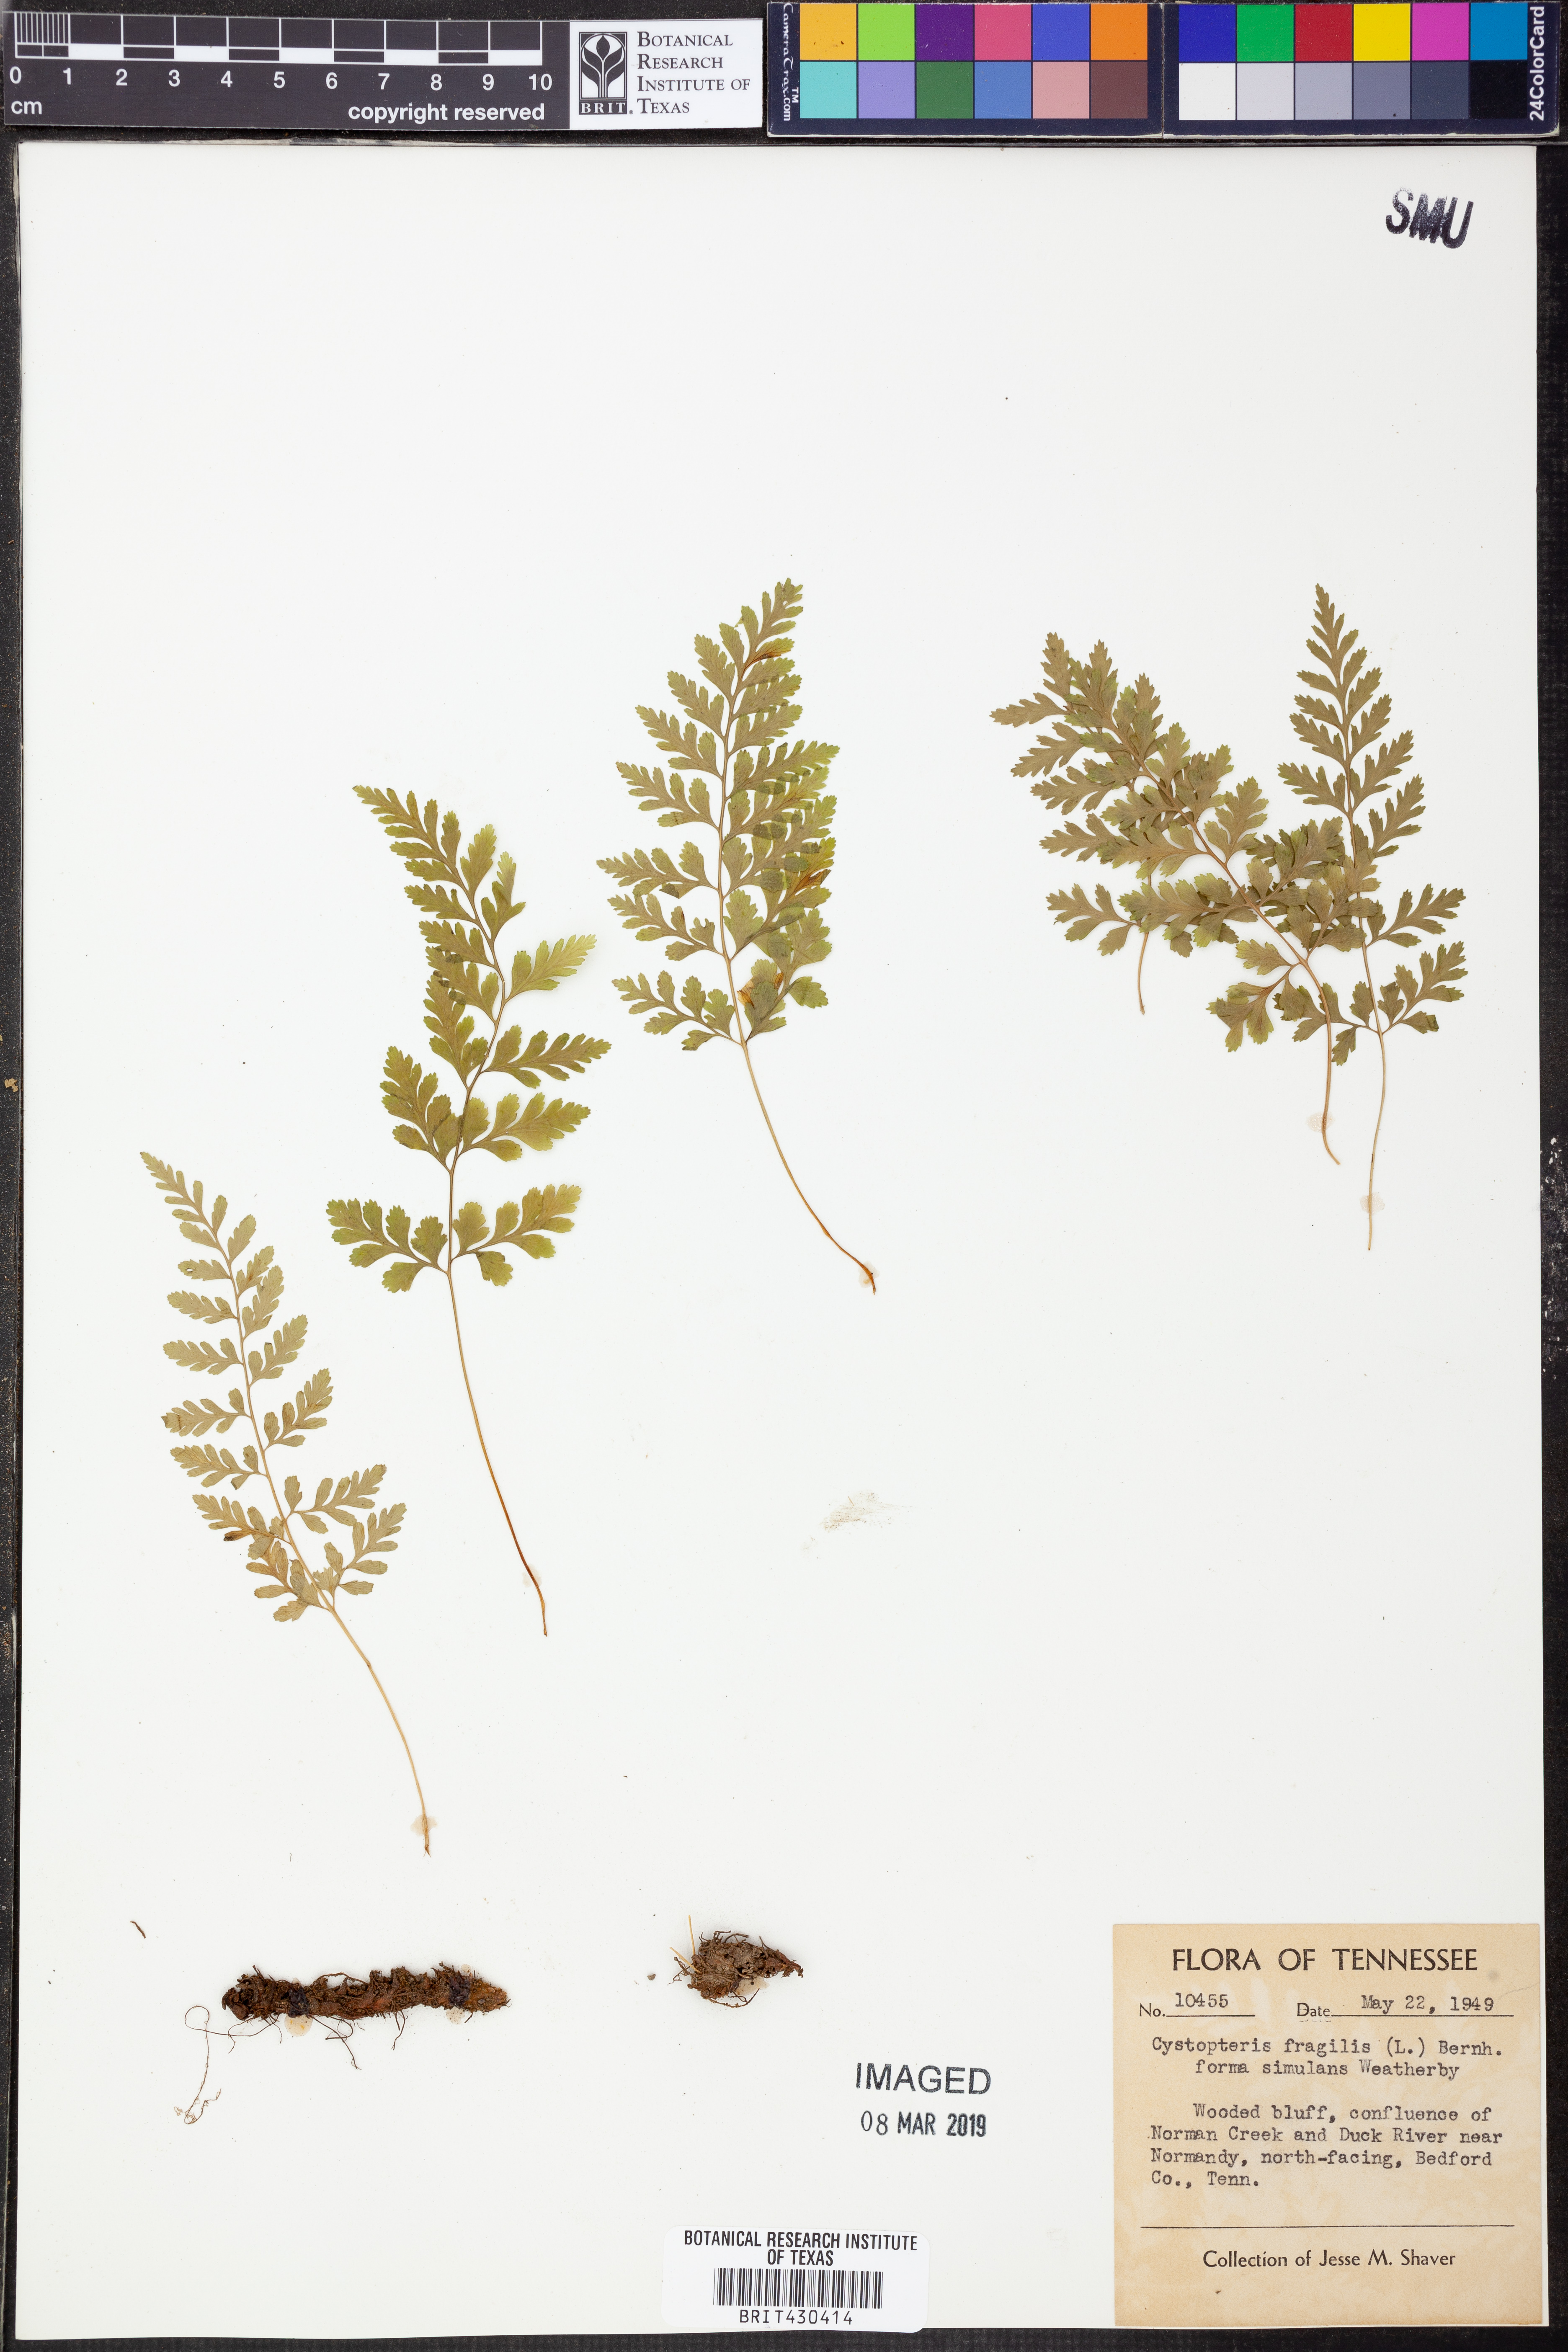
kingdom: Plantae
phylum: Tracheophyta
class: Polypodiopsida
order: Polypodiales
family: Cystopteridaceae
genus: Cystopteris
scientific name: Cystopteris fragilis
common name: Brittle bladder fern
